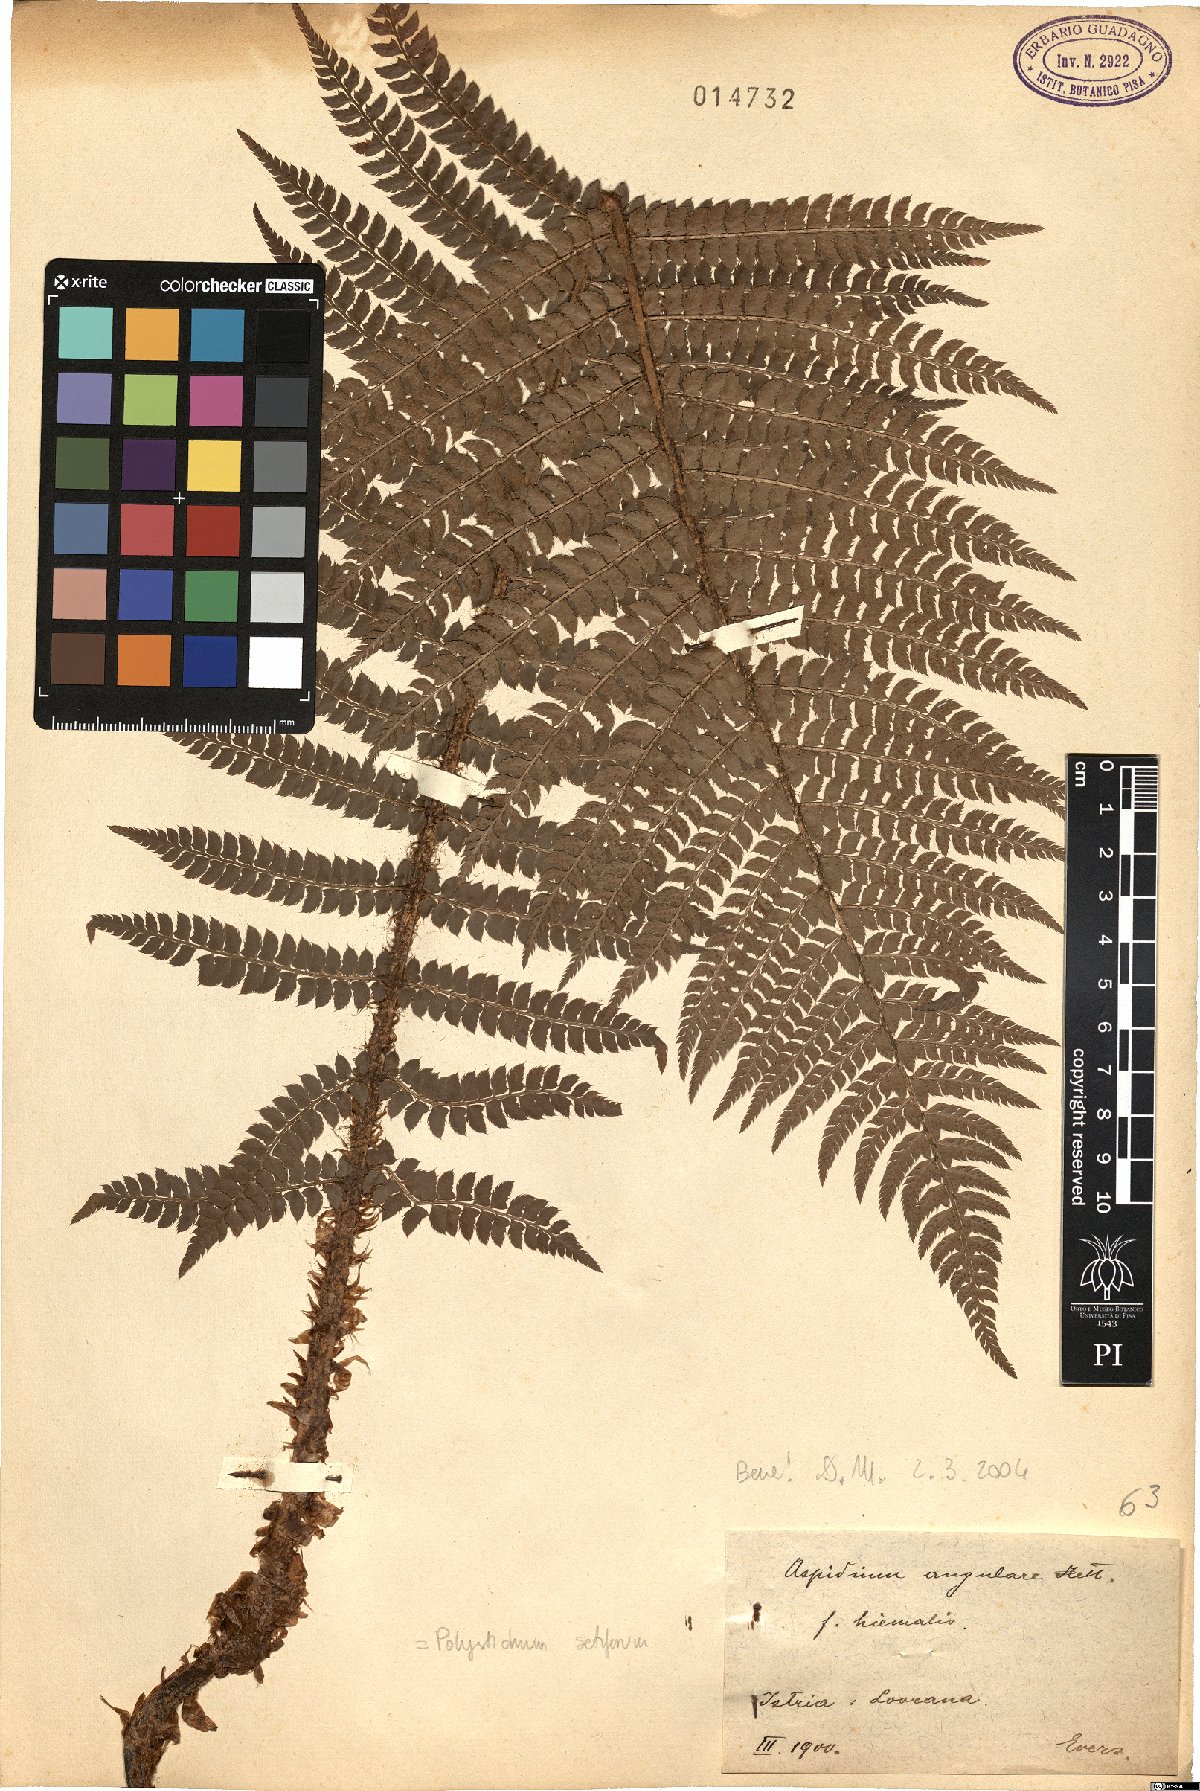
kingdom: Plantae
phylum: Tracheophyta
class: Polypodiopsida
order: Polypodiales
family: Dryopteridaceae
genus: Polystichum
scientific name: Polystichum setiferum
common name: Soft shield-fern
